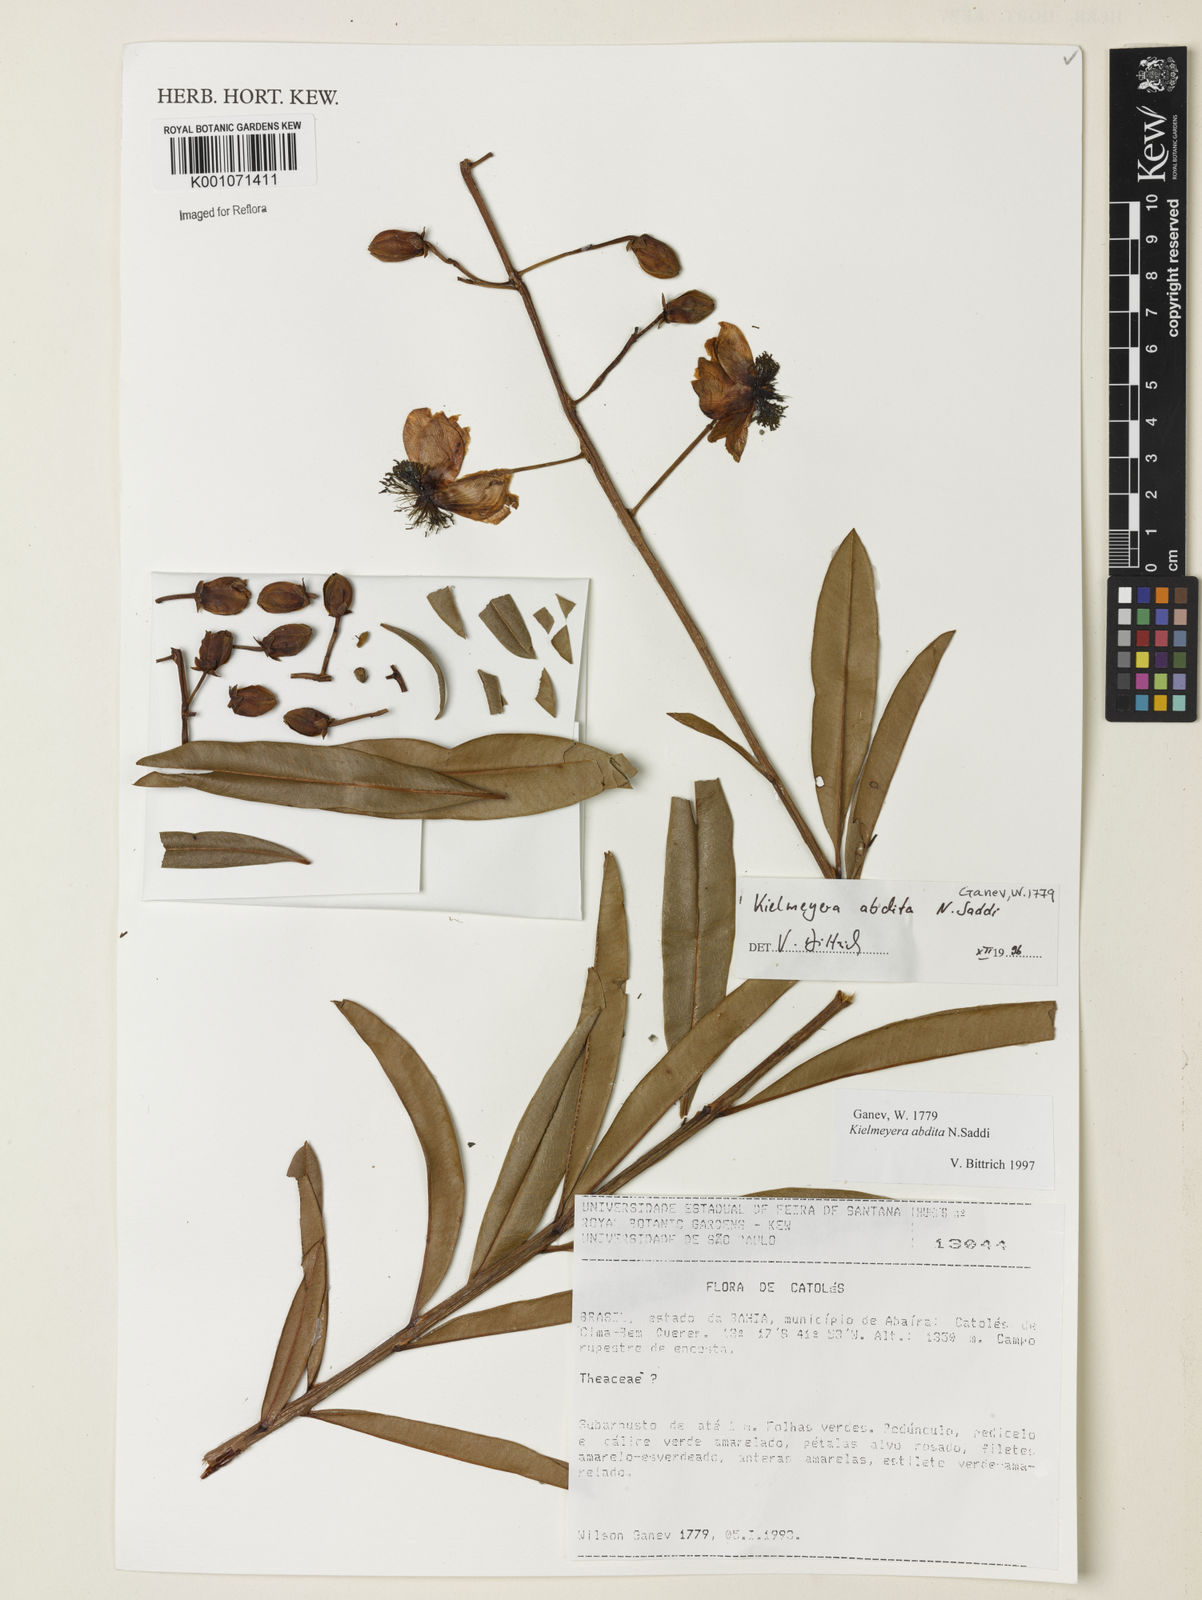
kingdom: Plantae
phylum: Tracheophyta
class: Magnoliopsida
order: Malpighiales
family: Calophyllaceae
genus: Kielmeyera
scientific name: Kielmeyera abdita
